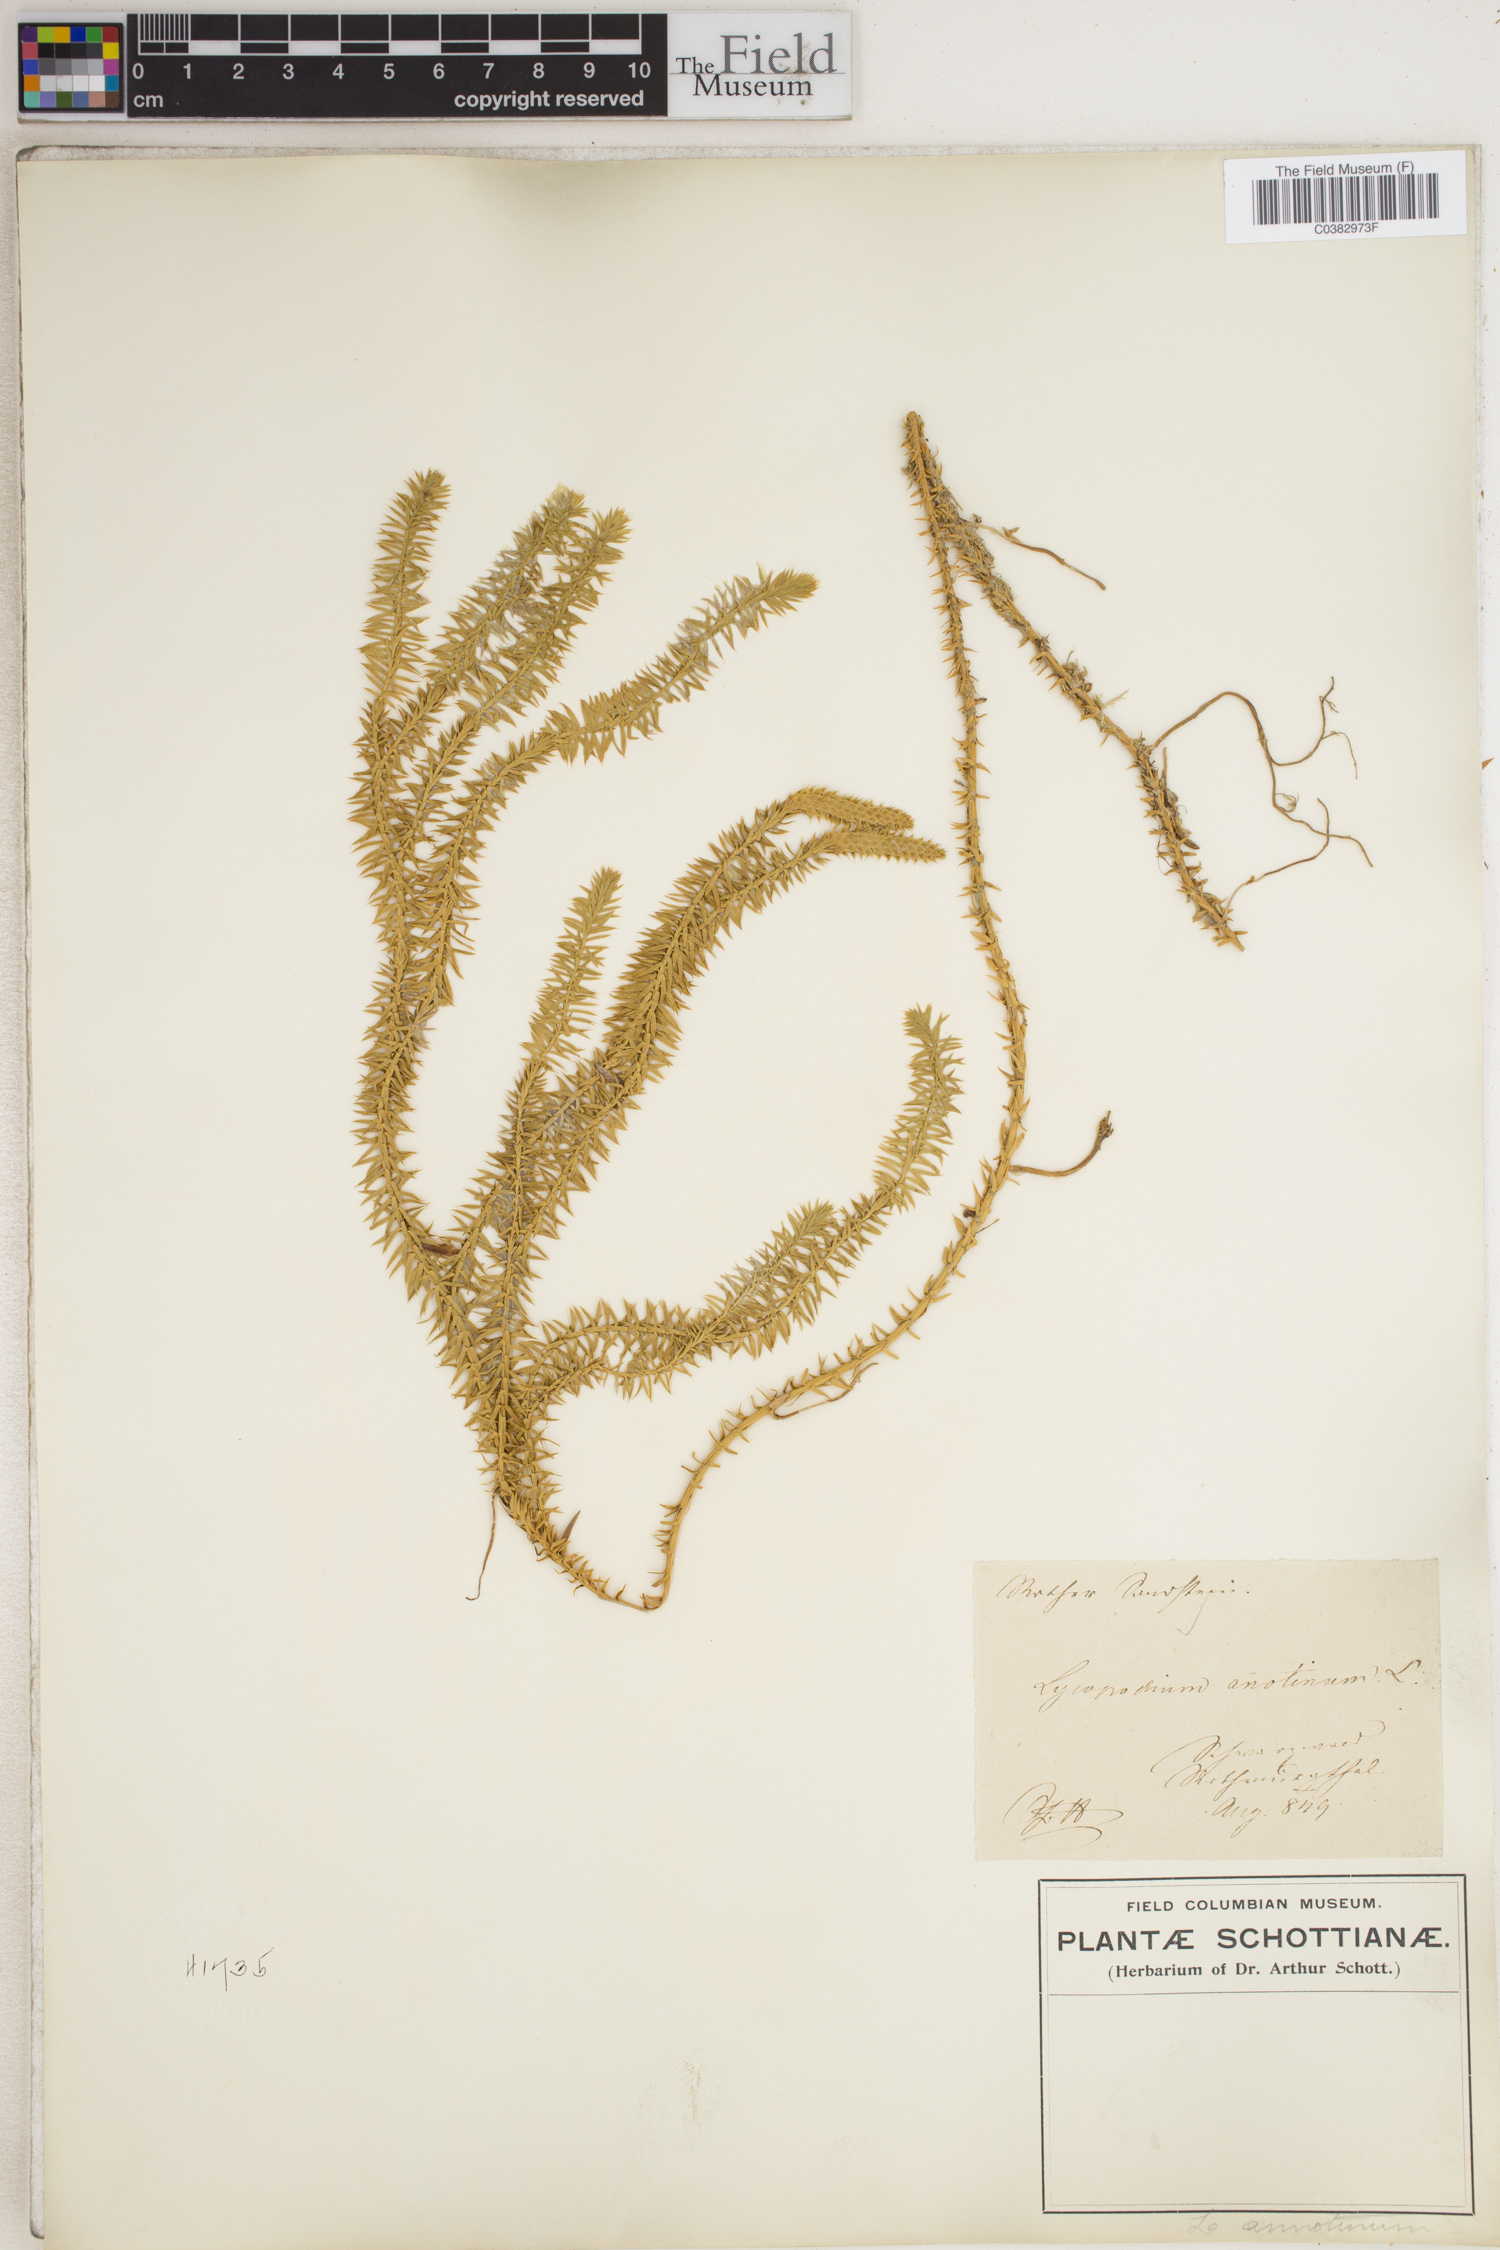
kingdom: Plantae
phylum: Tracheophyta
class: Lycopodiopsida
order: Lycopodiales
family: Lycopodiaceae
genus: Spinulum
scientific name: Spinulum annotinum
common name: Interrupted club-moss
